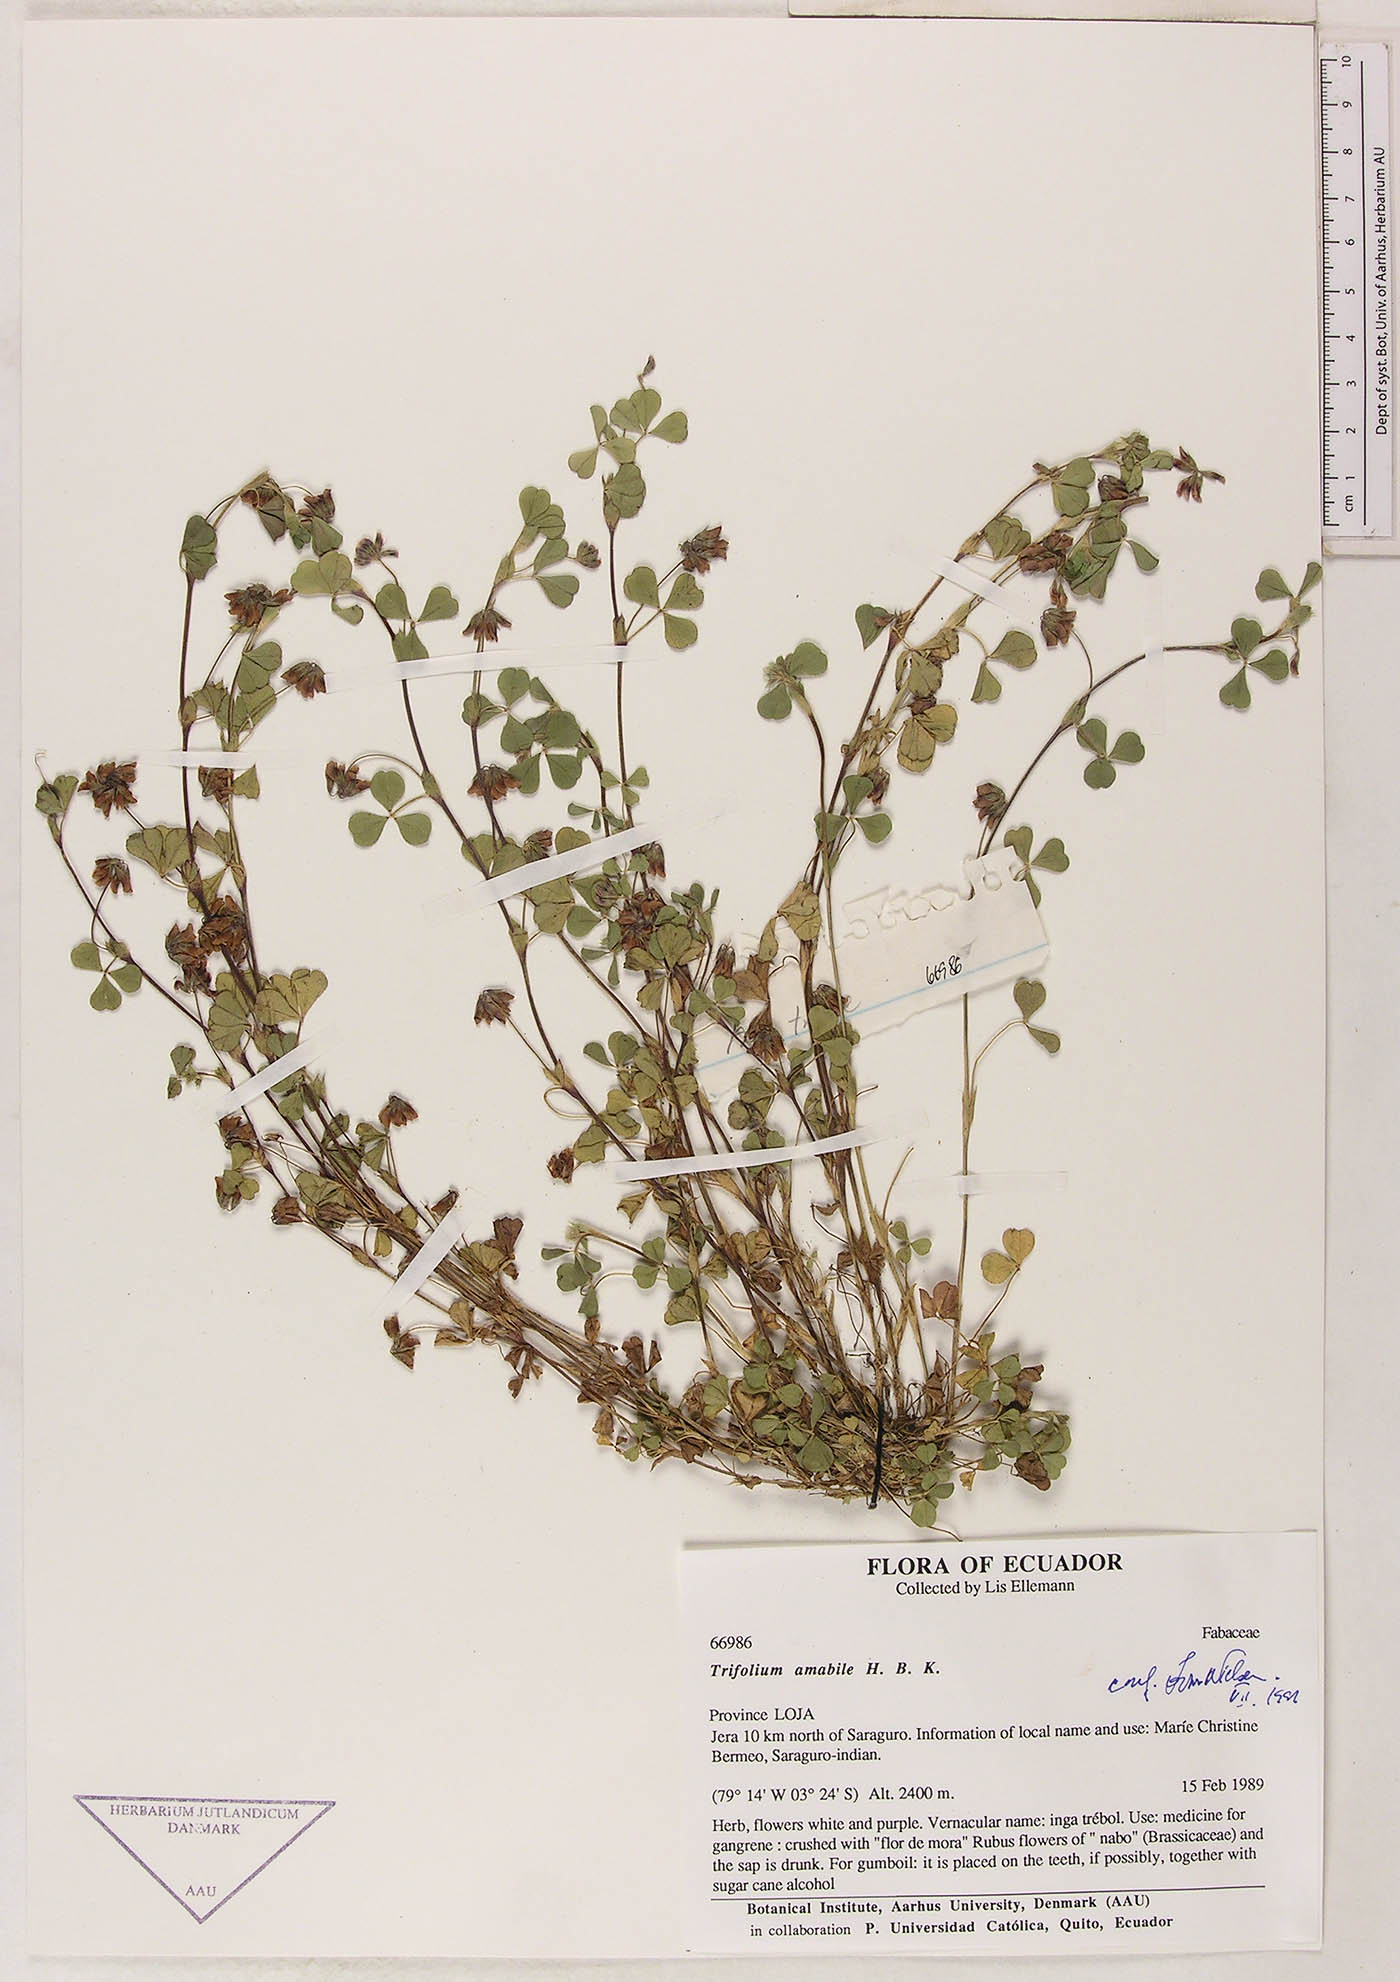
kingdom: Plantae
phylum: Tracheophyta
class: Magnoliopsida
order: Fabales
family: Fabaceae
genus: Trifolium
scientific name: Trifolium amabile
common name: Aztec clover
